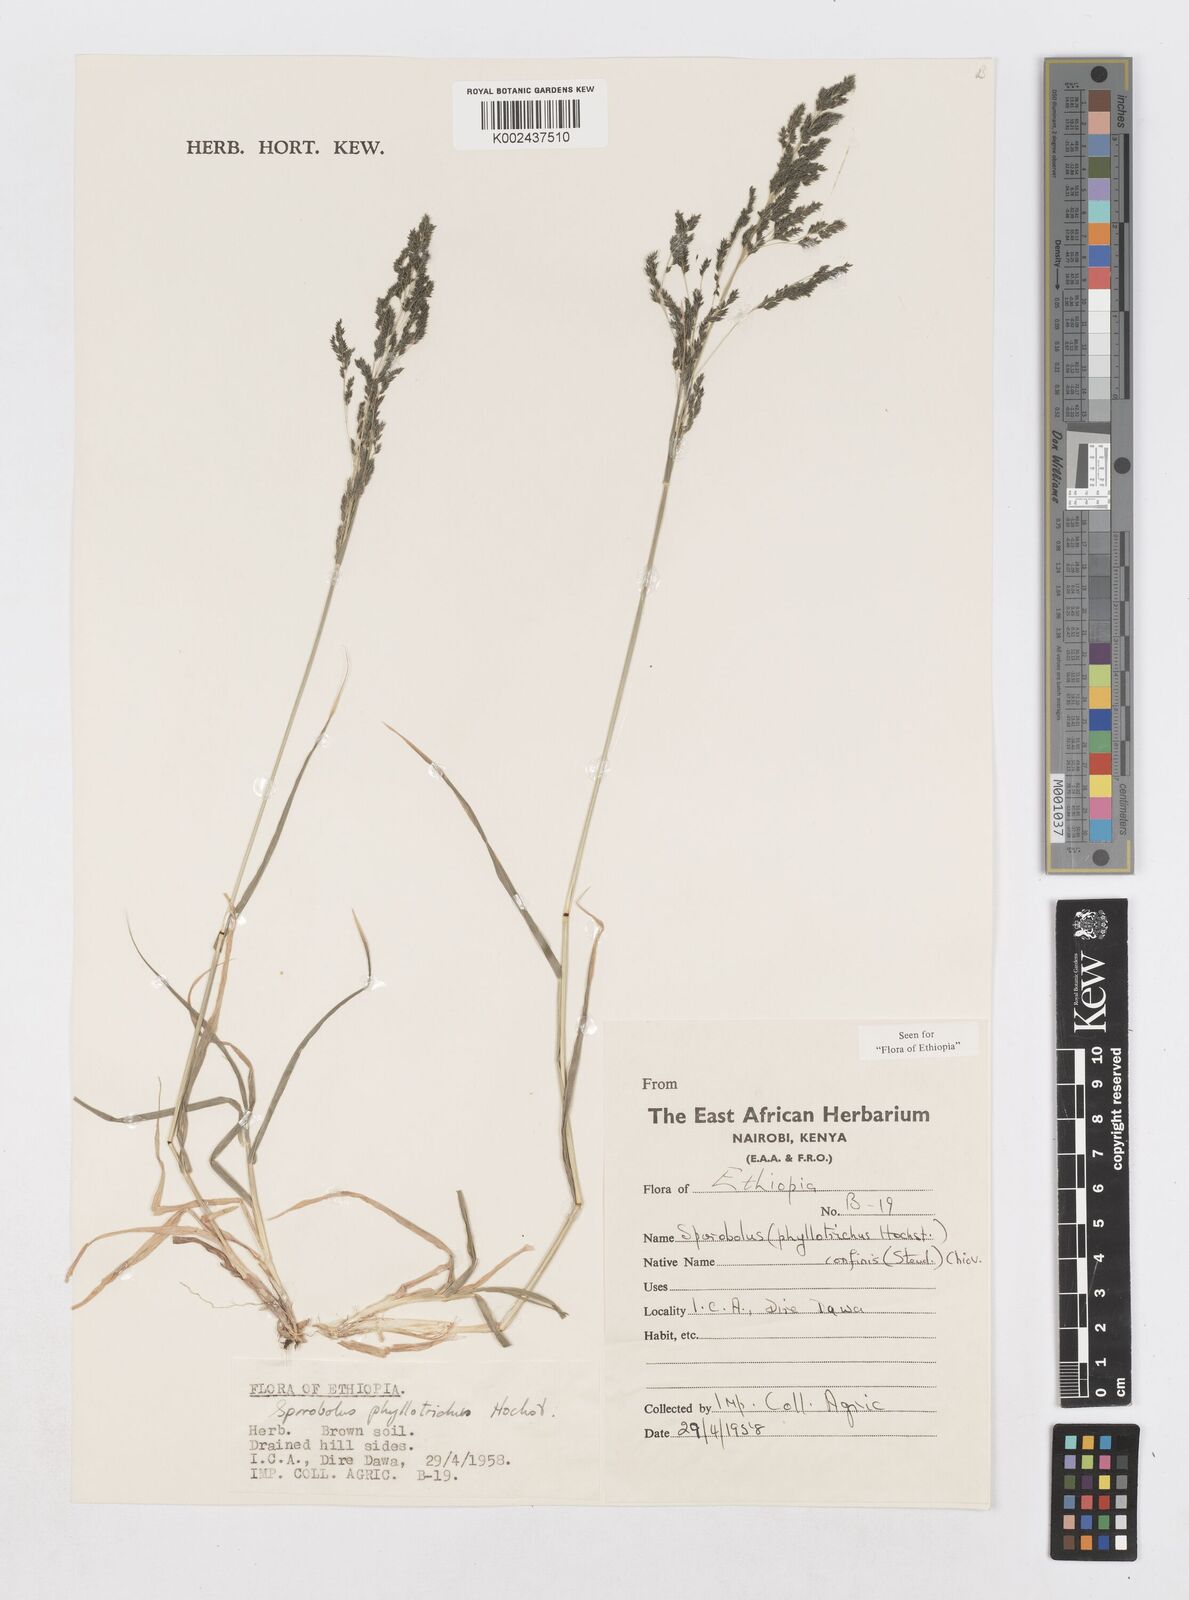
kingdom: Plantae
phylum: Tracheophyta
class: Liliopsida
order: Poales
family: Poaceae
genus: Sporobolus
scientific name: Sporobolus confinis
